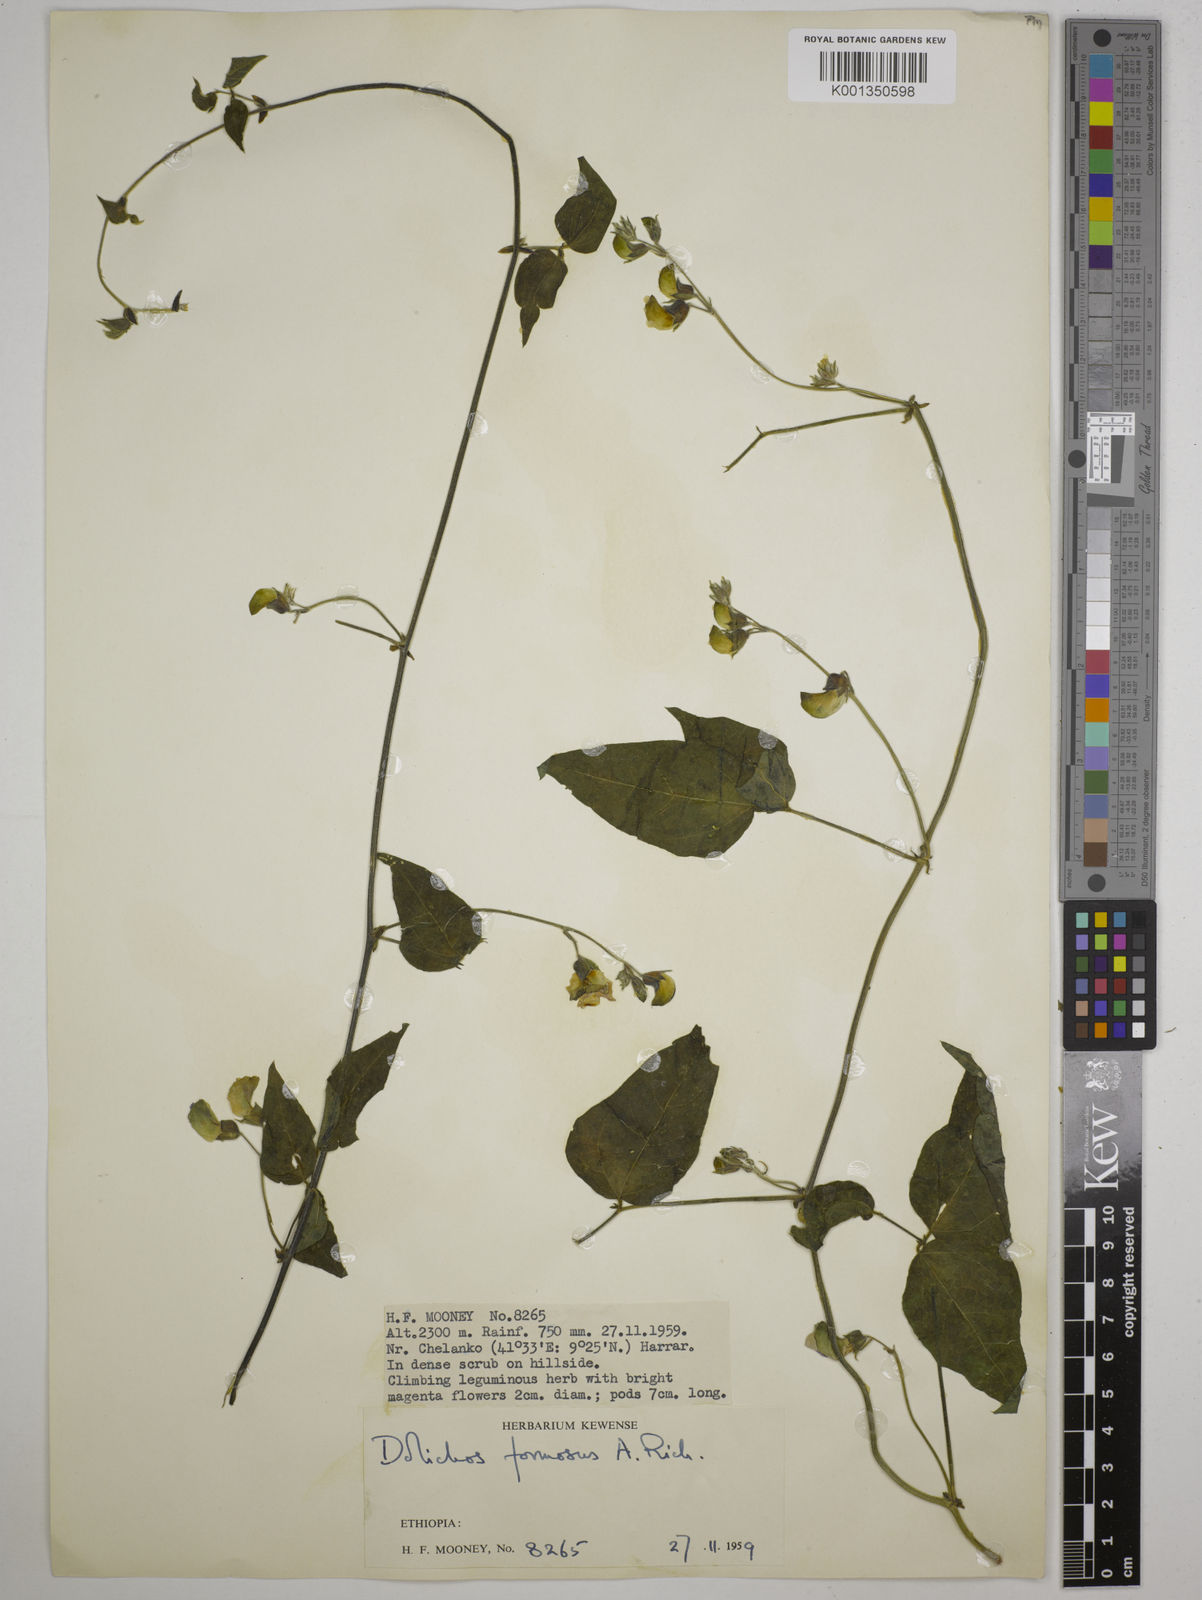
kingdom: Plantae
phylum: Tracheophyta
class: Magnoliopsida
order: Fabales
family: Fabaceae
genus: Dolichos
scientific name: Dolichos
